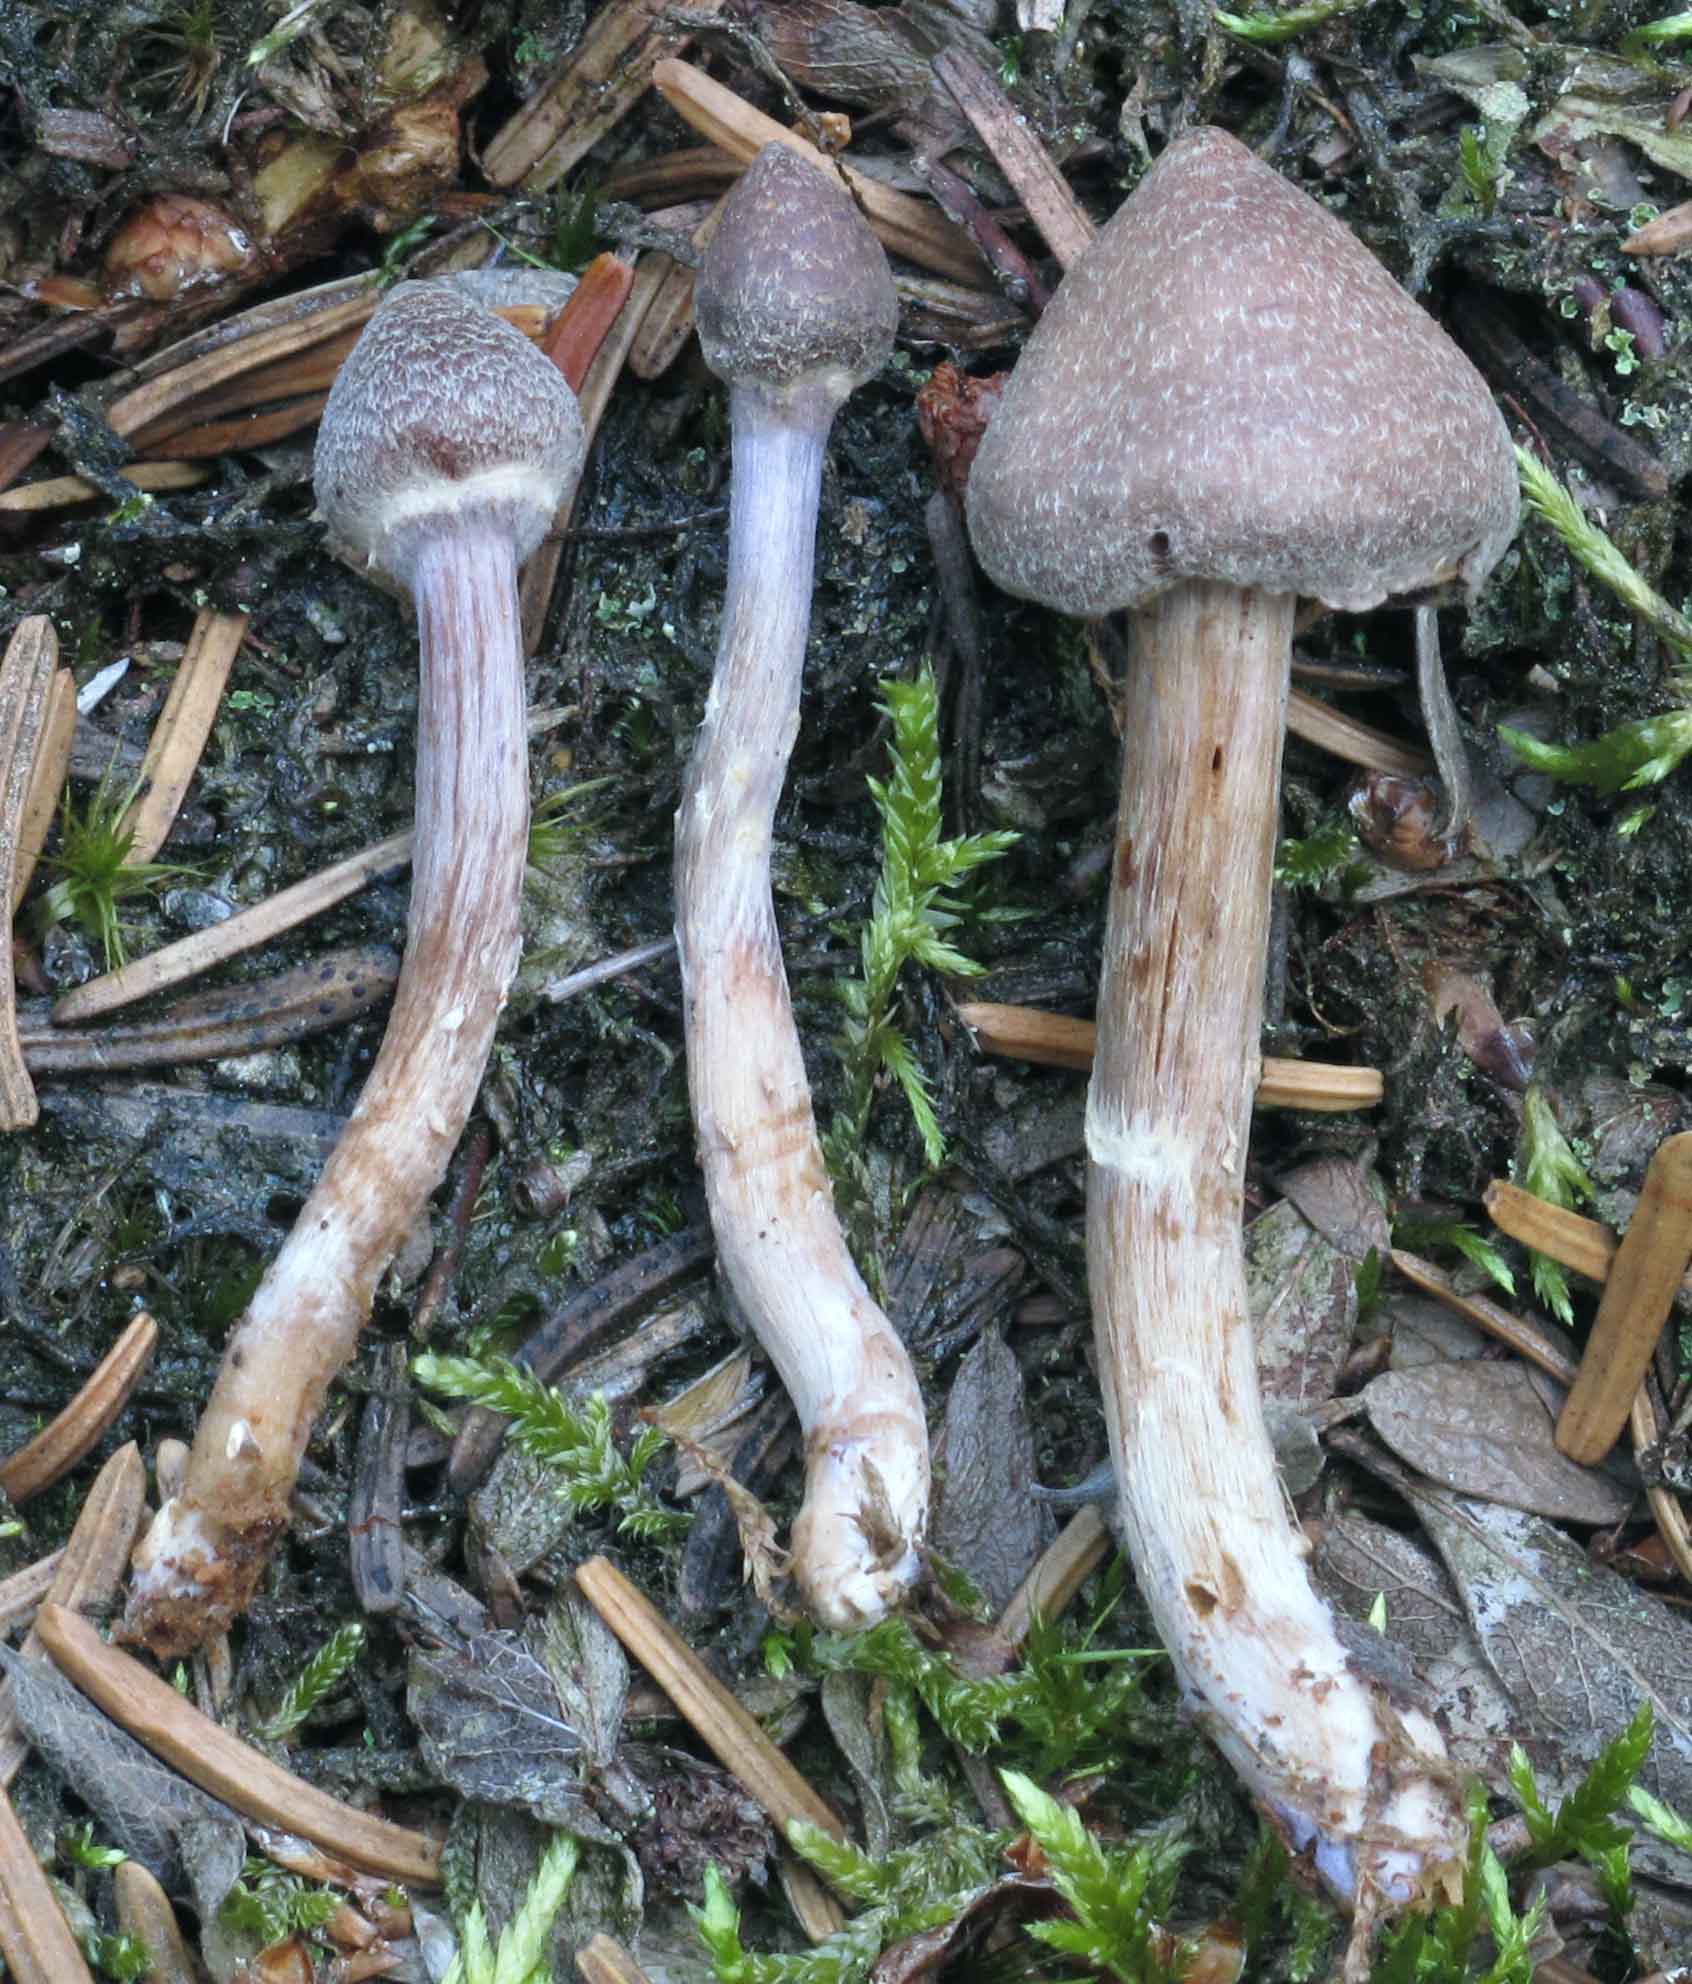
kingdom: Fungi
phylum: Basidiomycota
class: Agaricomycetes
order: Agaricales
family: Cortinariaceae
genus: Cortinarius
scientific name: Cortinarius
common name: pelargonie-slørhat
